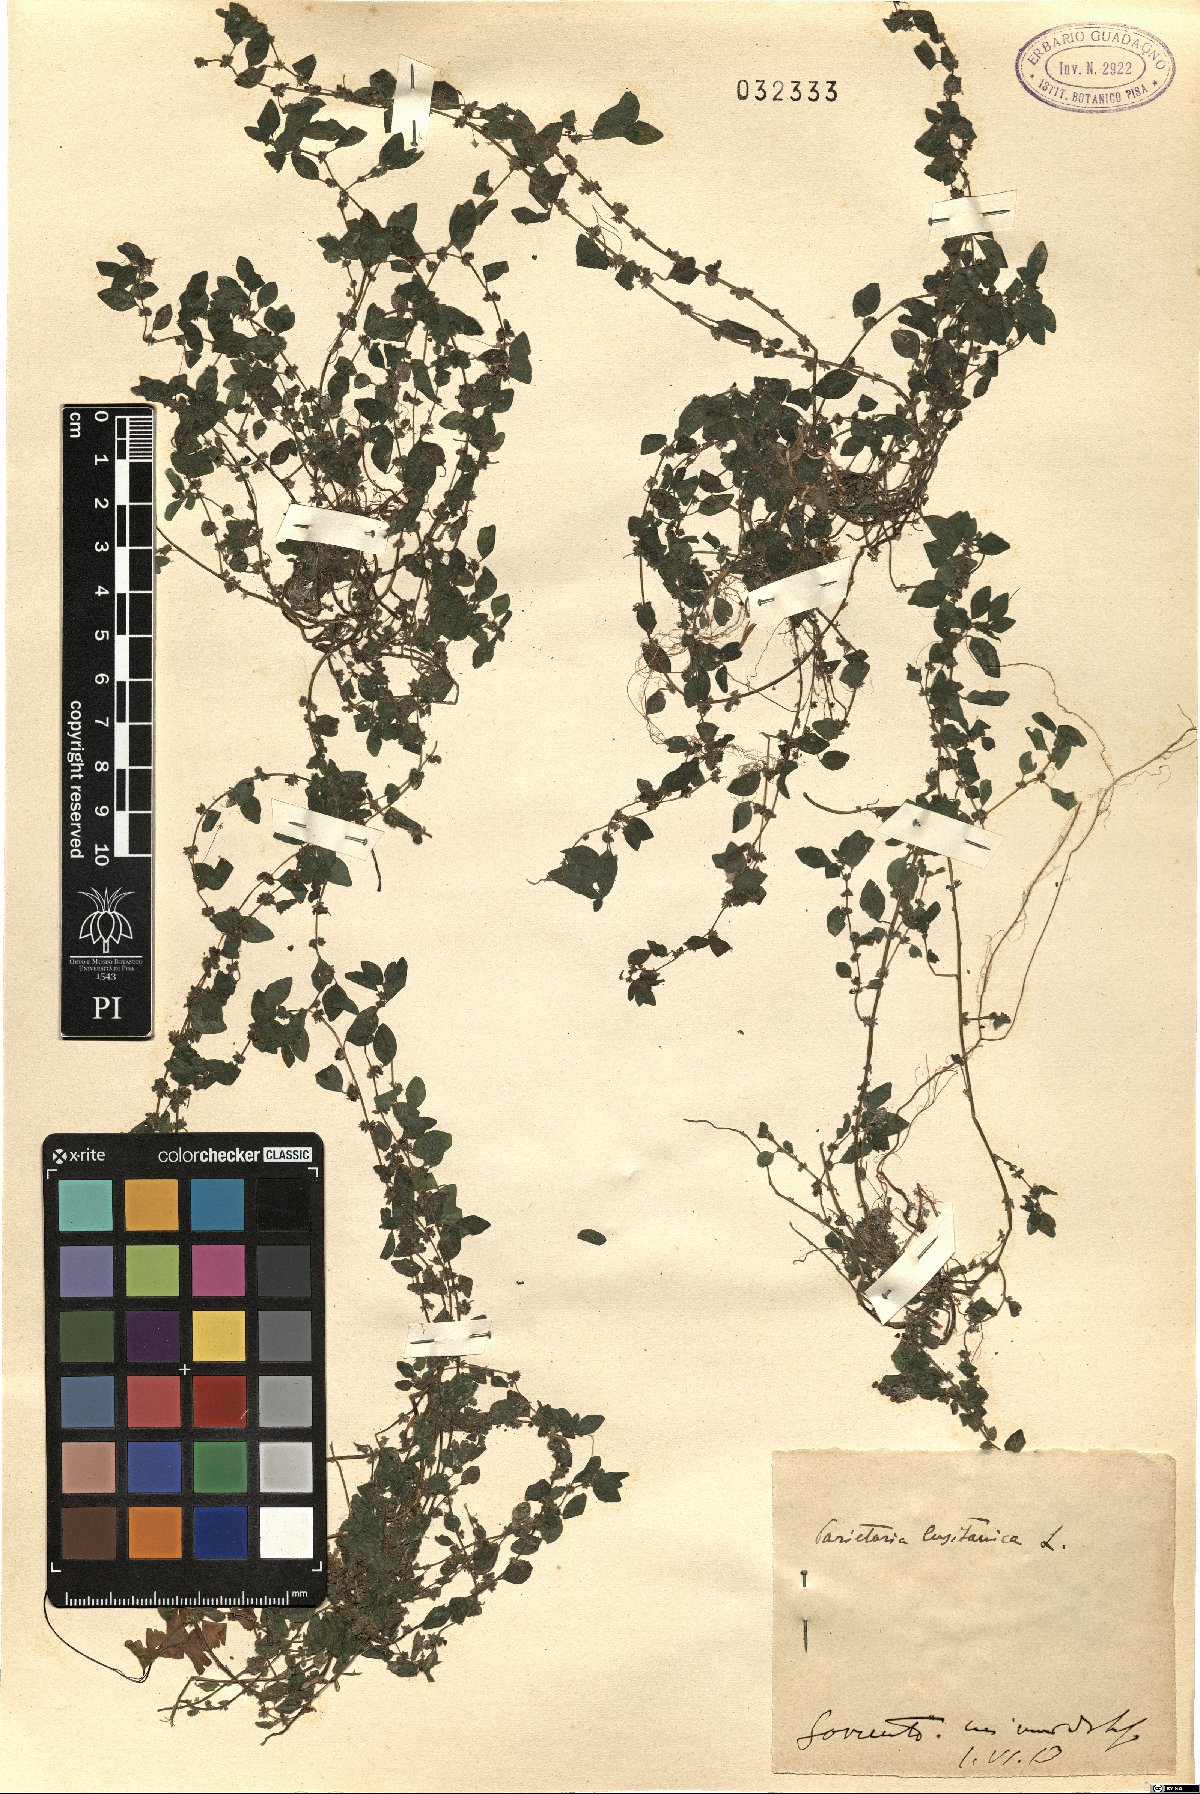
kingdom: Plantae
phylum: Tracheophyta
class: Magnoliopsida
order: Rosales
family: Urticaceae
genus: Parietaria
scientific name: Parietaria lusitanica
